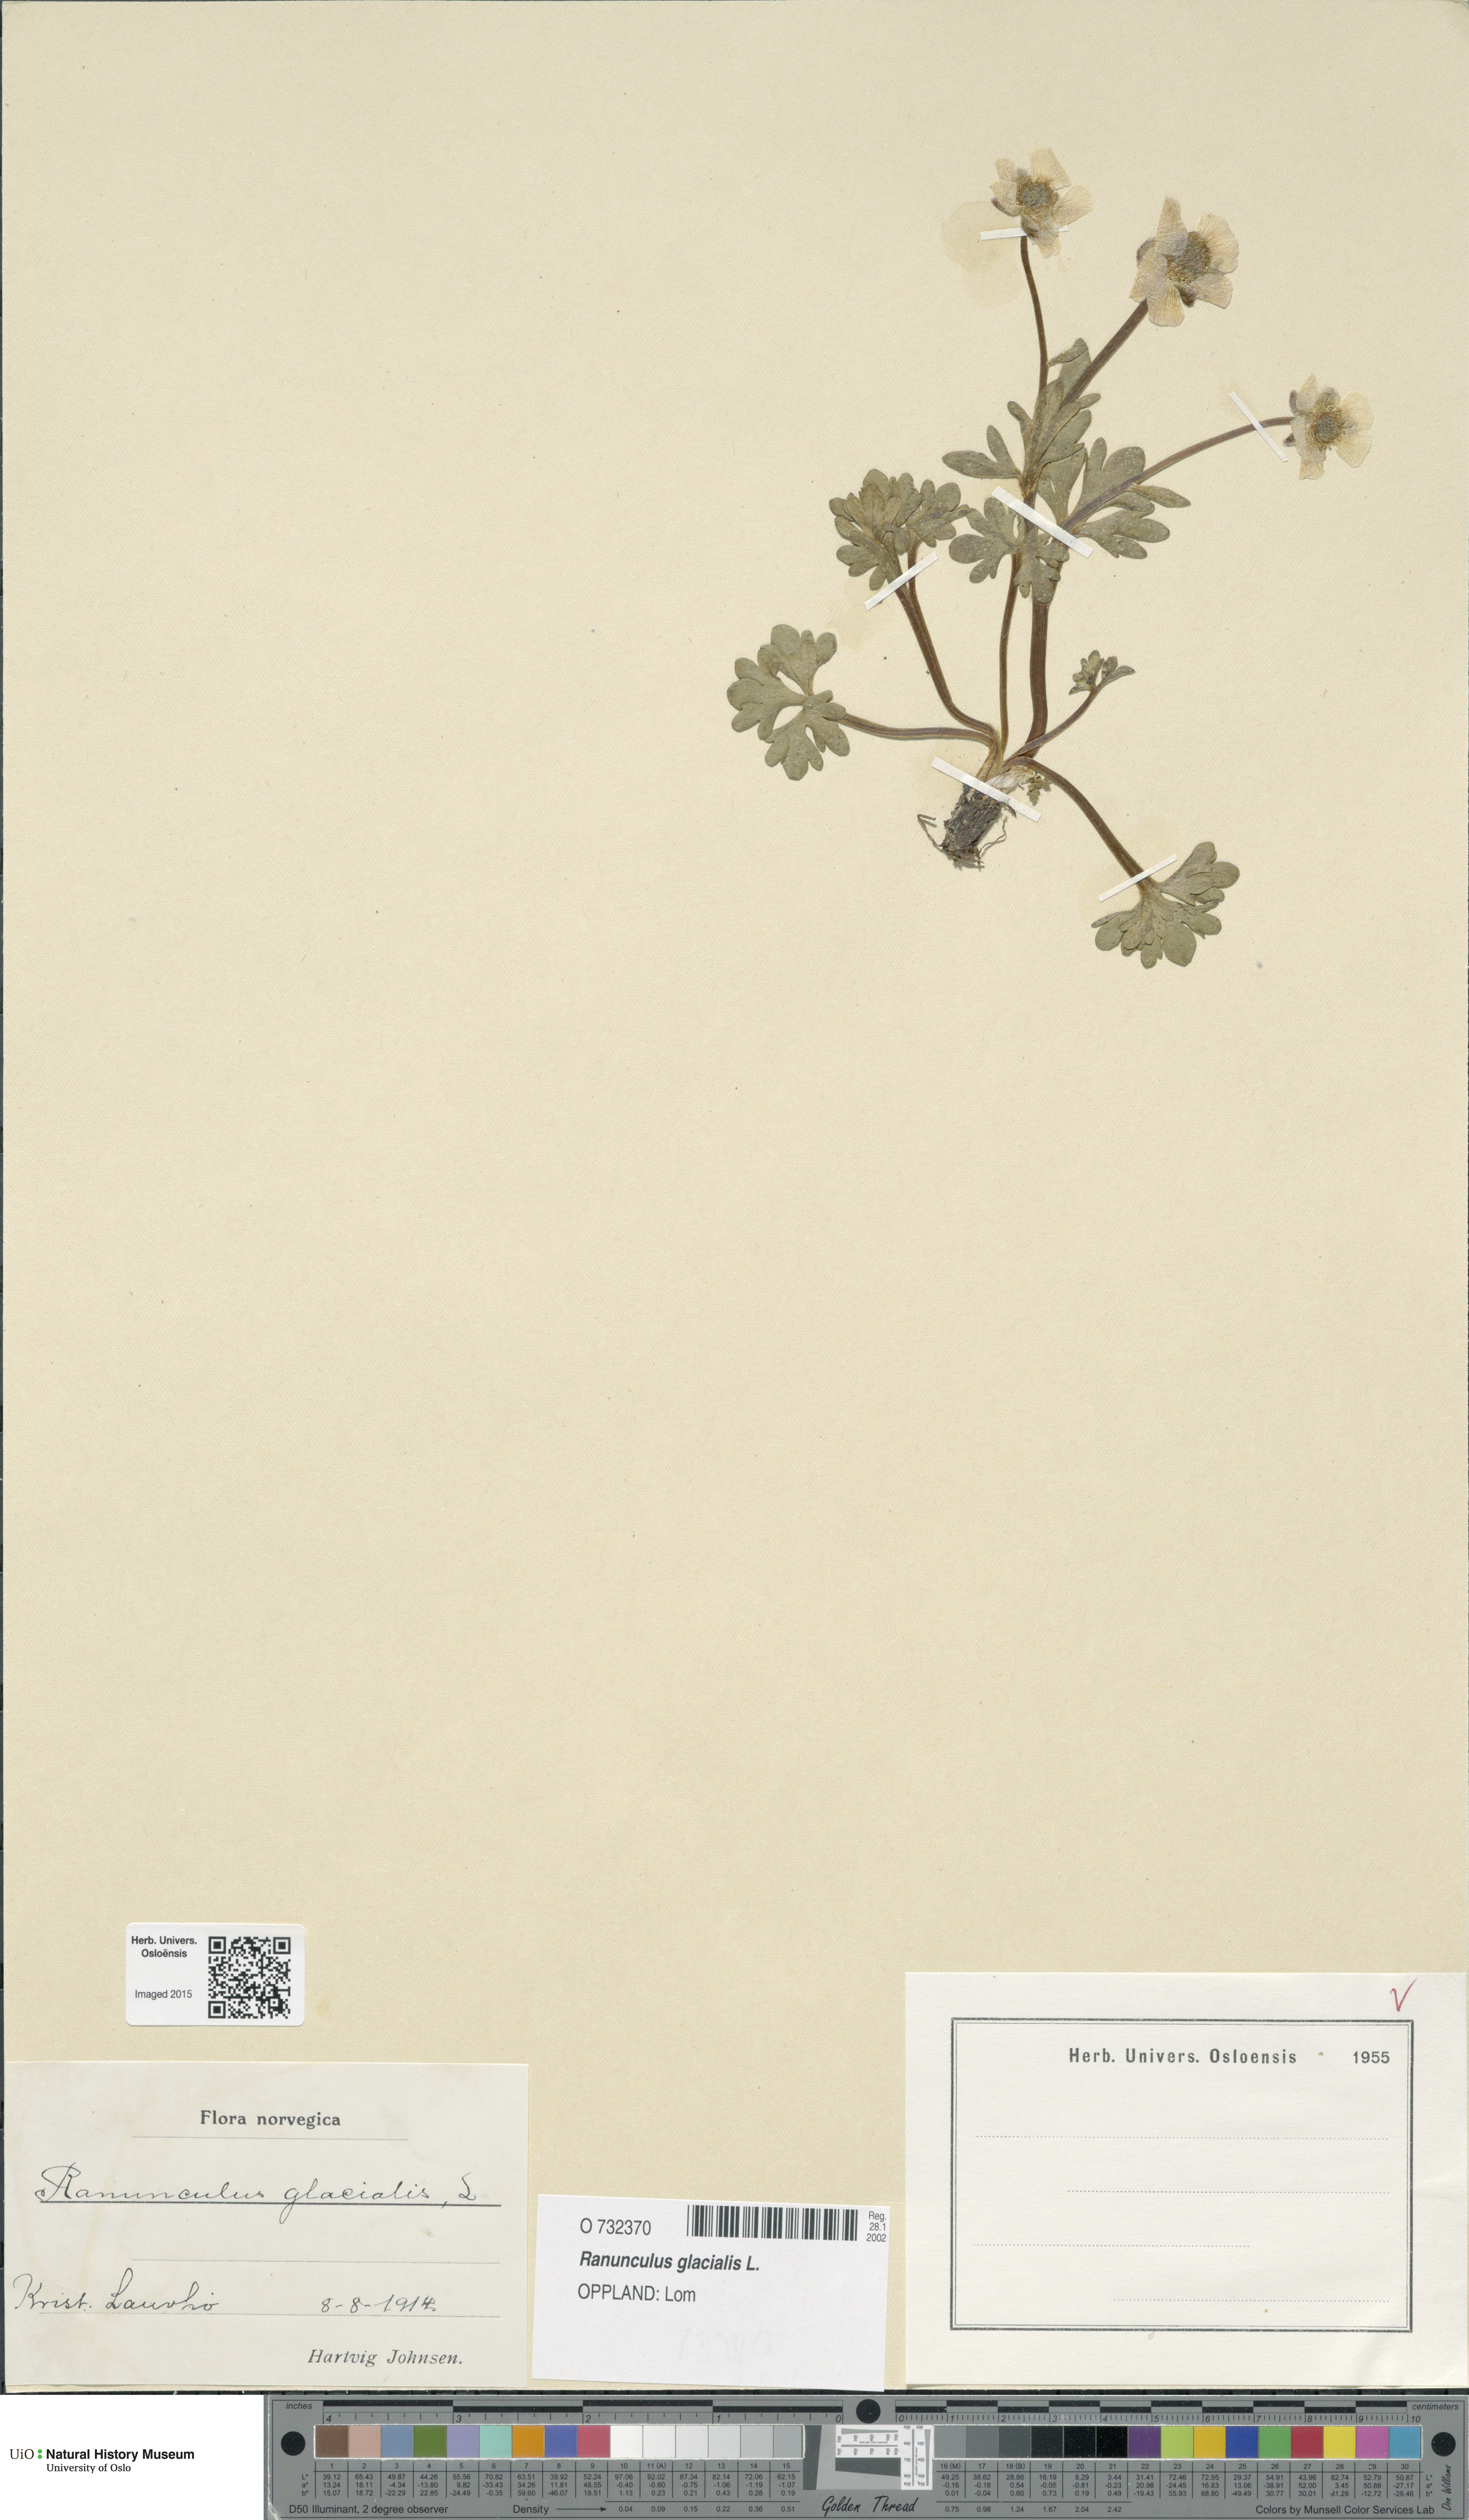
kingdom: Plantae
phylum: Tracheophyta
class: Magnoliopsida
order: Ranunculales
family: Ranunculaceae
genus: Ranunculus
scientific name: Ranunculus glacialis
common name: Glacier buttercup
